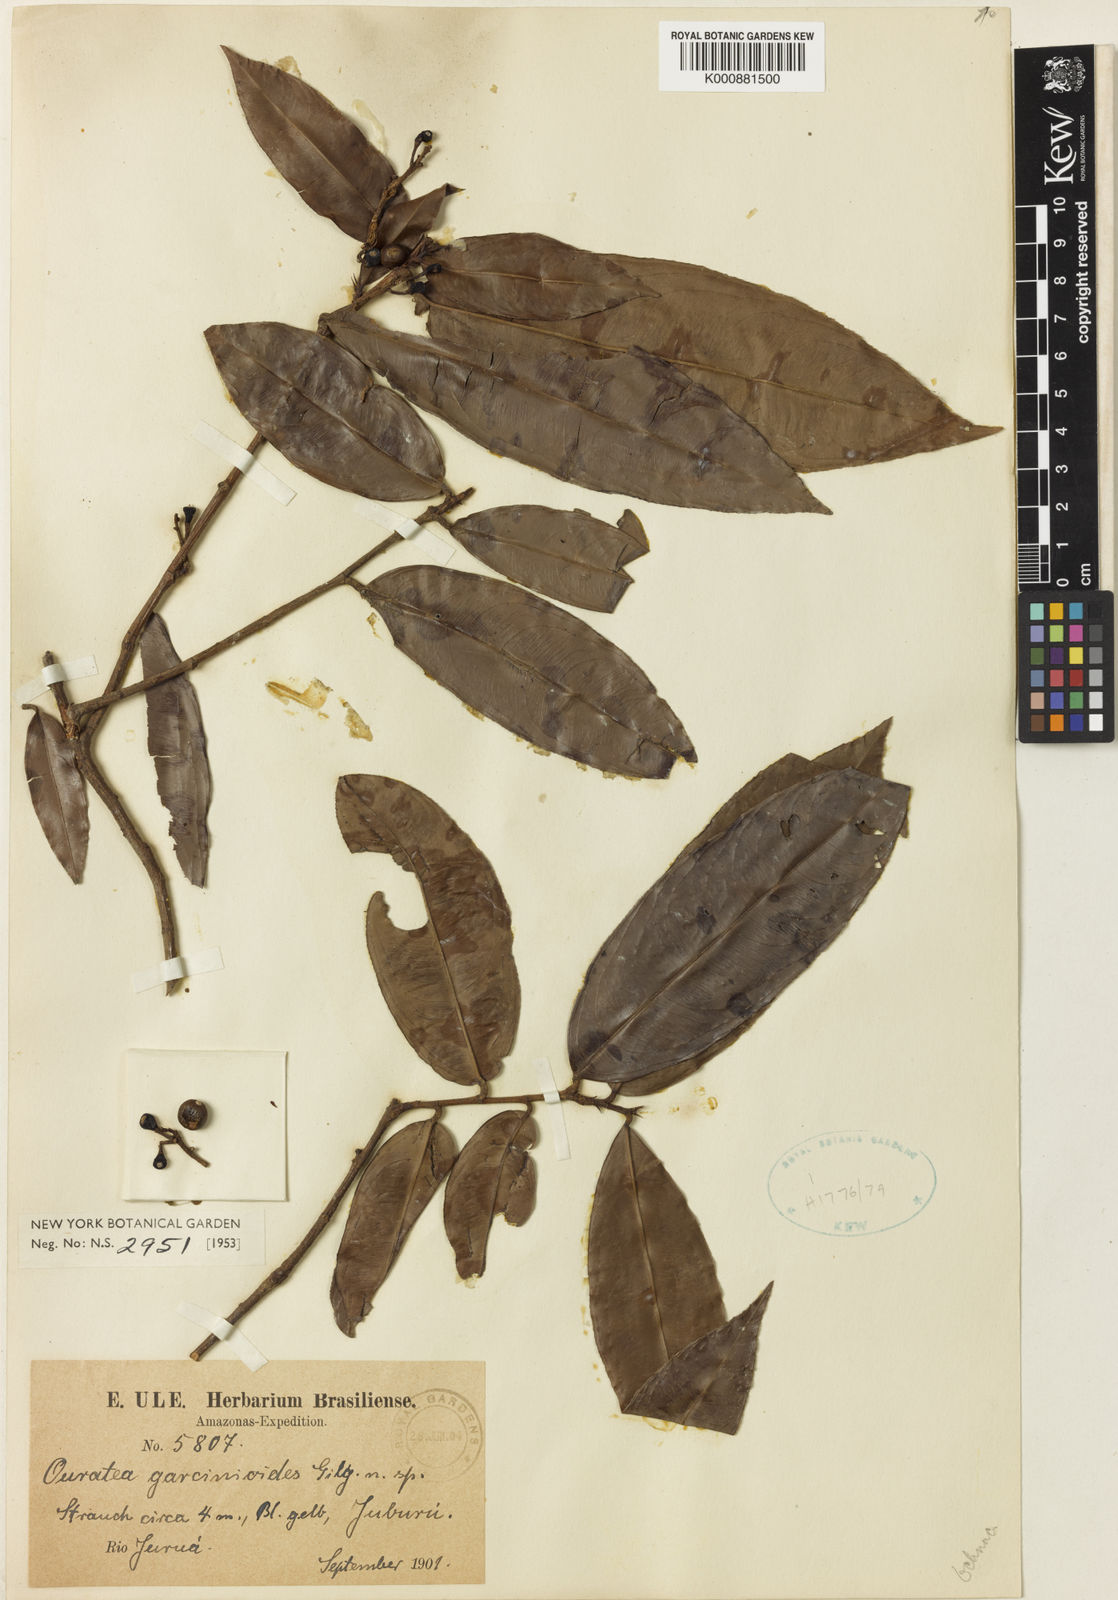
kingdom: Plantae
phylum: Tracheophyta
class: Magnoliopsida
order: Malpighiales
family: Ochnaceae
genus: Ouratea
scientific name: Ouratea garcinioides
